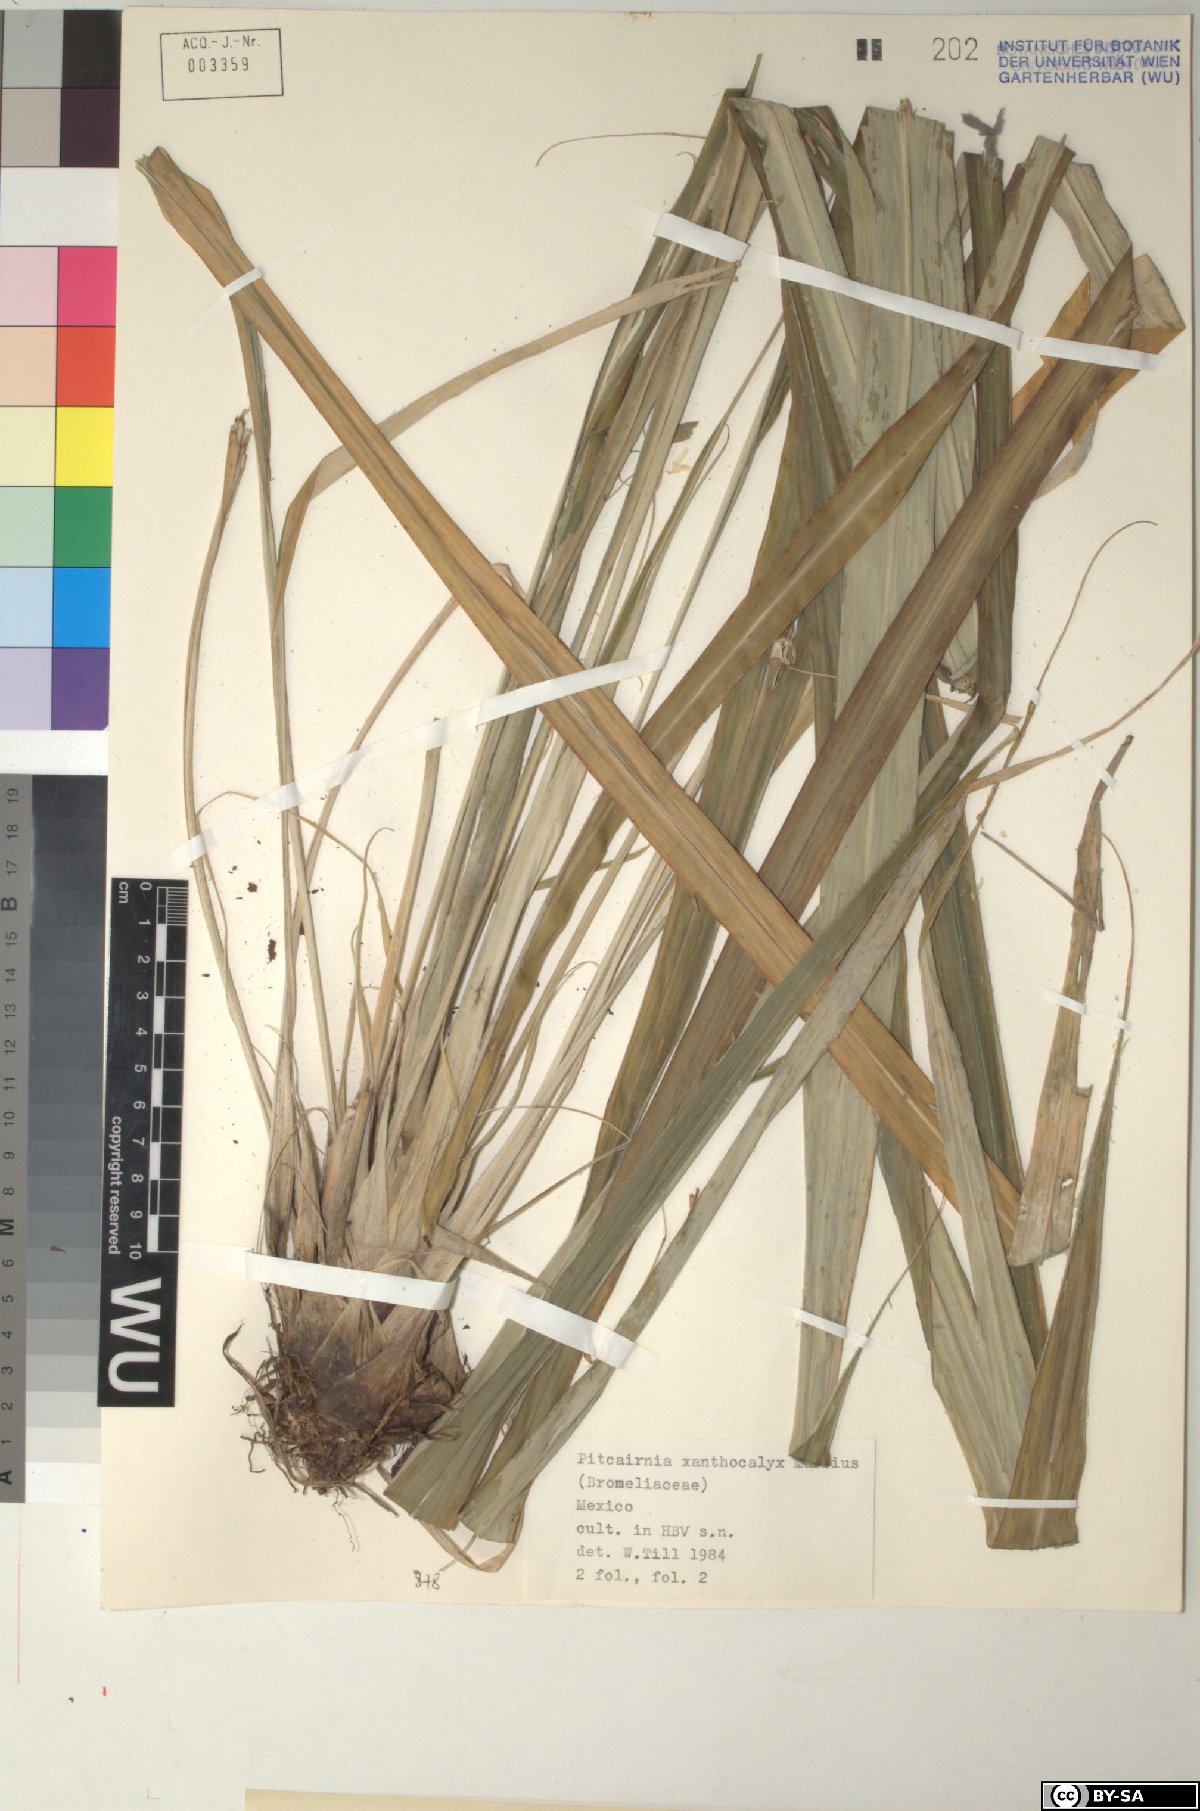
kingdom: Plantae
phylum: Tracheophyta
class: Liliopsida
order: Poales
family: Bromeliaceae
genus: Pitcairnia
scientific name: Pitcairnia xanthocalyx
